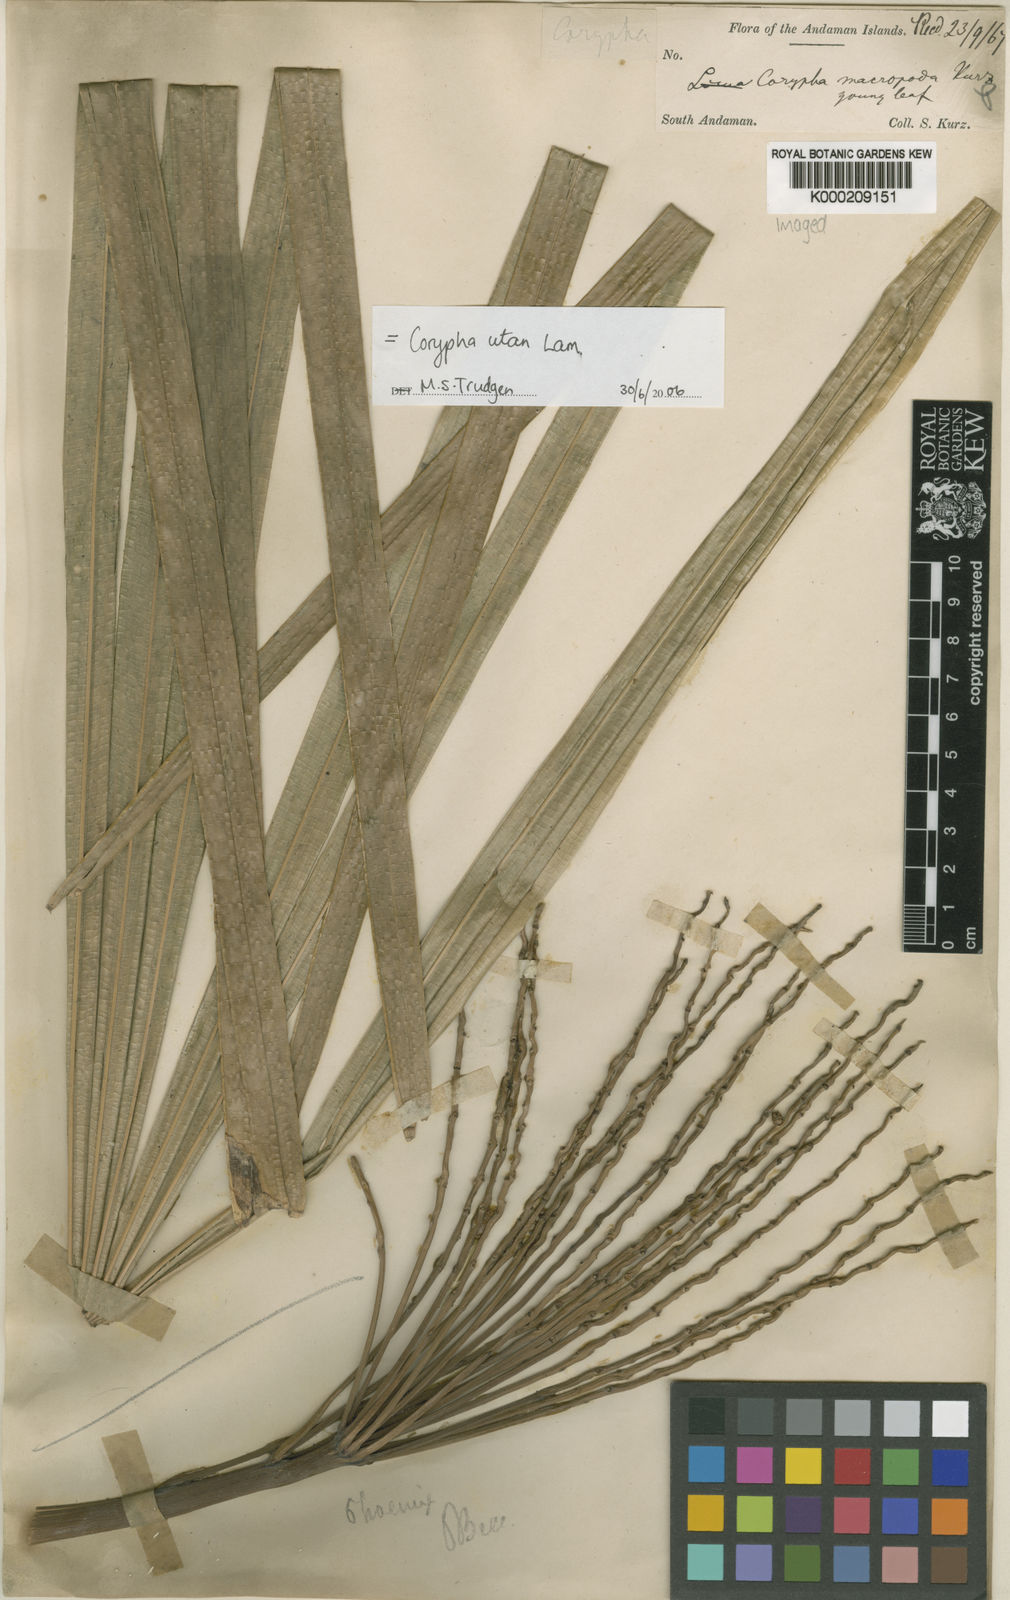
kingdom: Plantae
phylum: Tracheophyta
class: Liliopsida
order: Arecales
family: Arecaceae
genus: Corypha
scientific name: Corypha utan
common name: Buri palm
